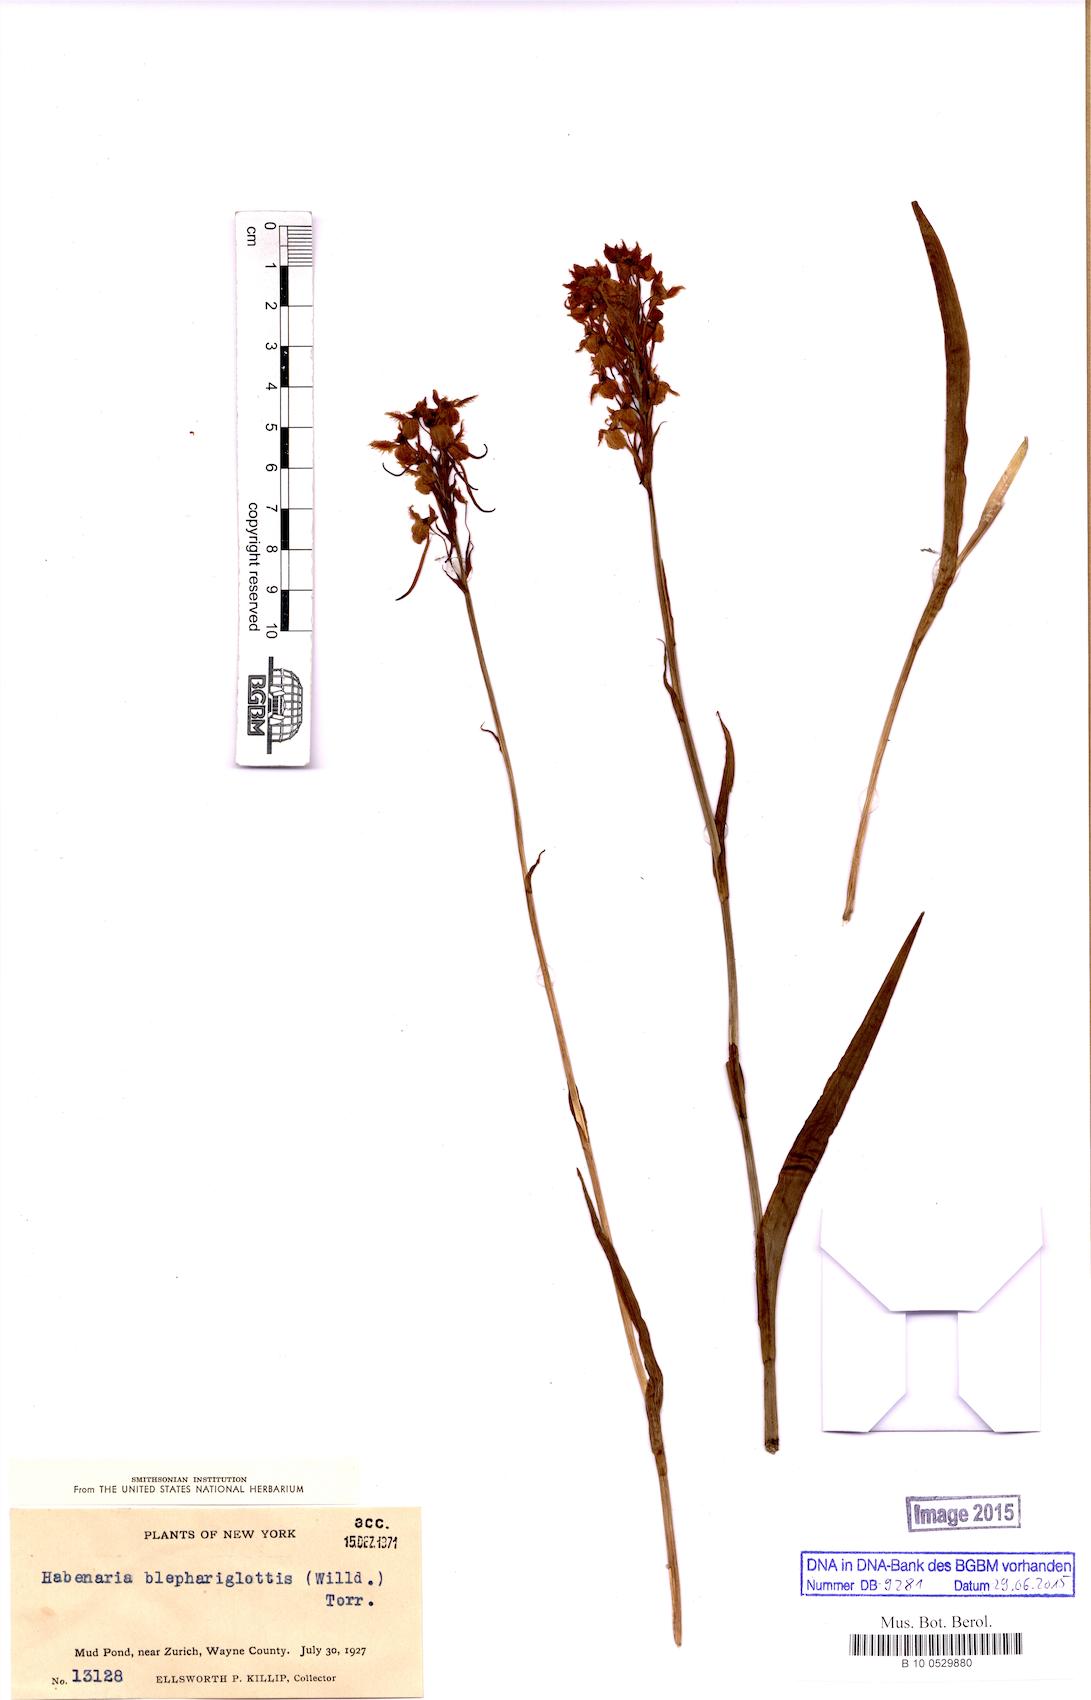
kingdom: Plantae
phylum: Tracheophyta
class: Liliopsida
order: Asparagales
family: Orchidaceae
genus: Platanthera
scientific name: Platanthera blephariglottis
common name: White fringed orchid
